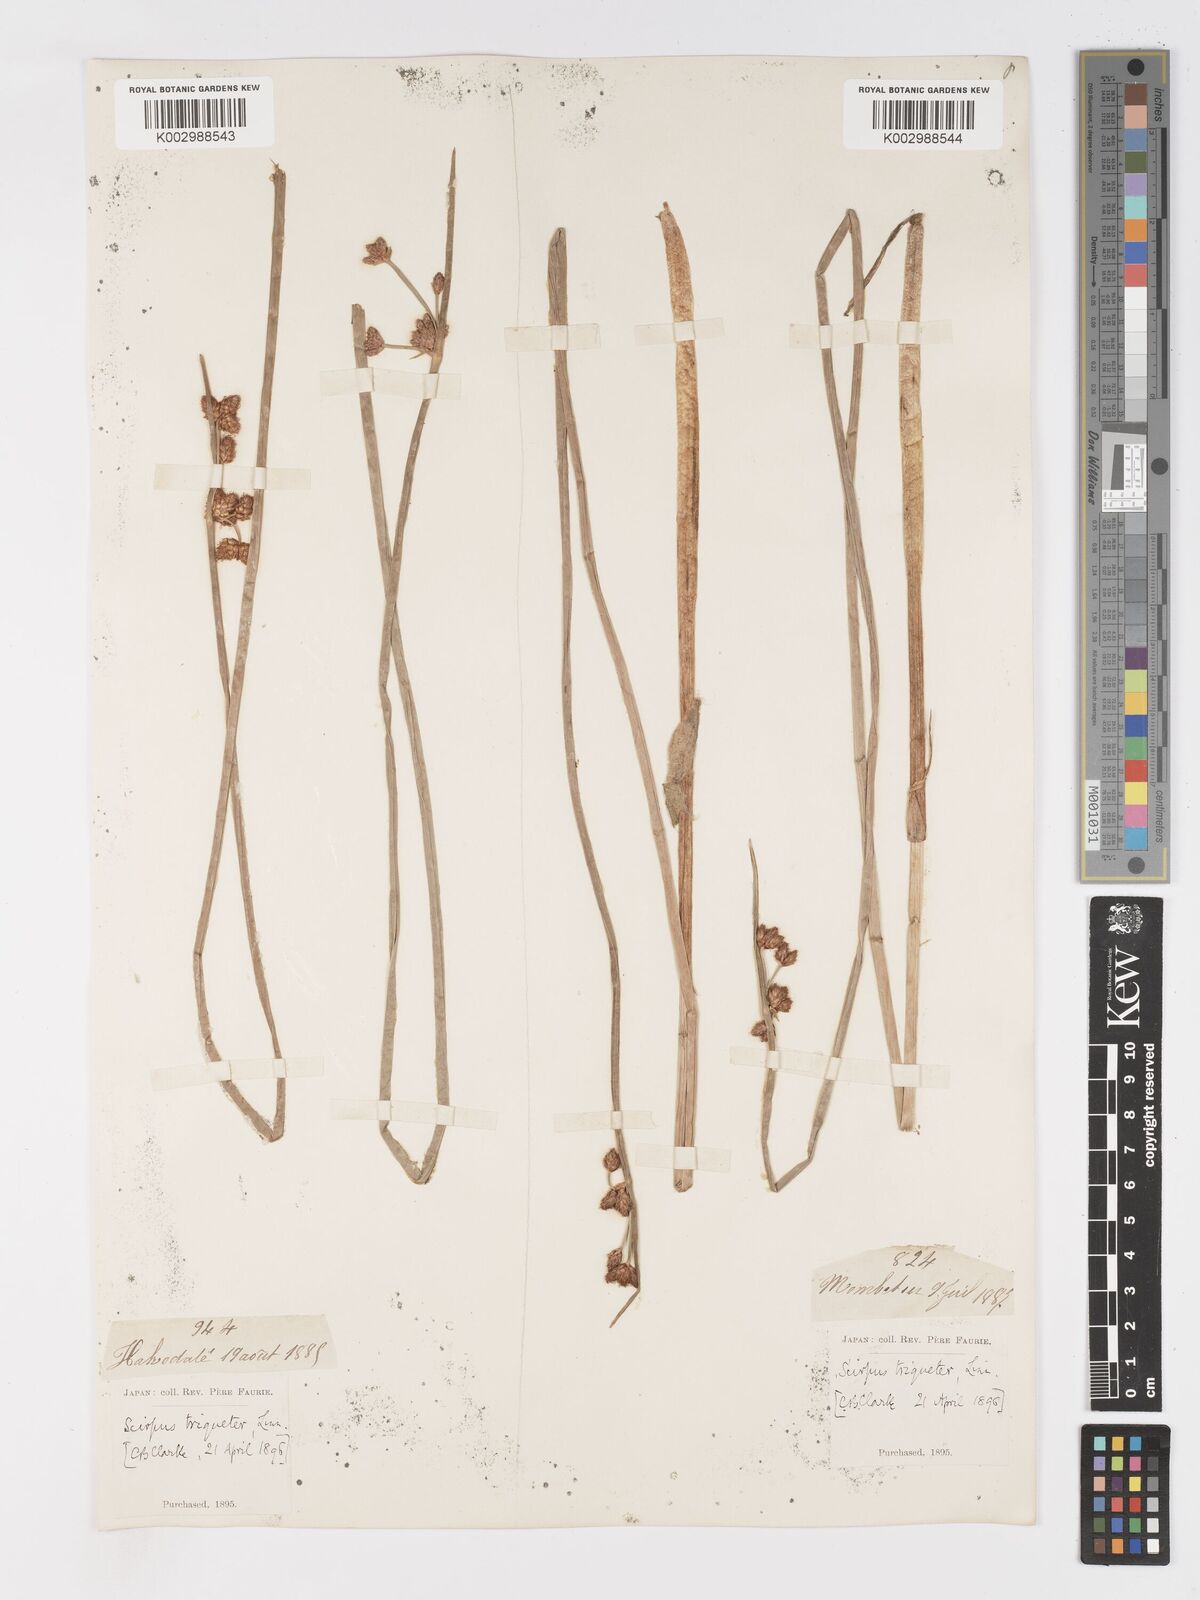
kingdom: Plantae
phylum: Tracheophyta
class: Liliopsida
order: Poales
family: Cyperaceae
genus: Schoenoplectus
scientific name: Schoenoplectus triqueter
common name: Triangular club-rush
